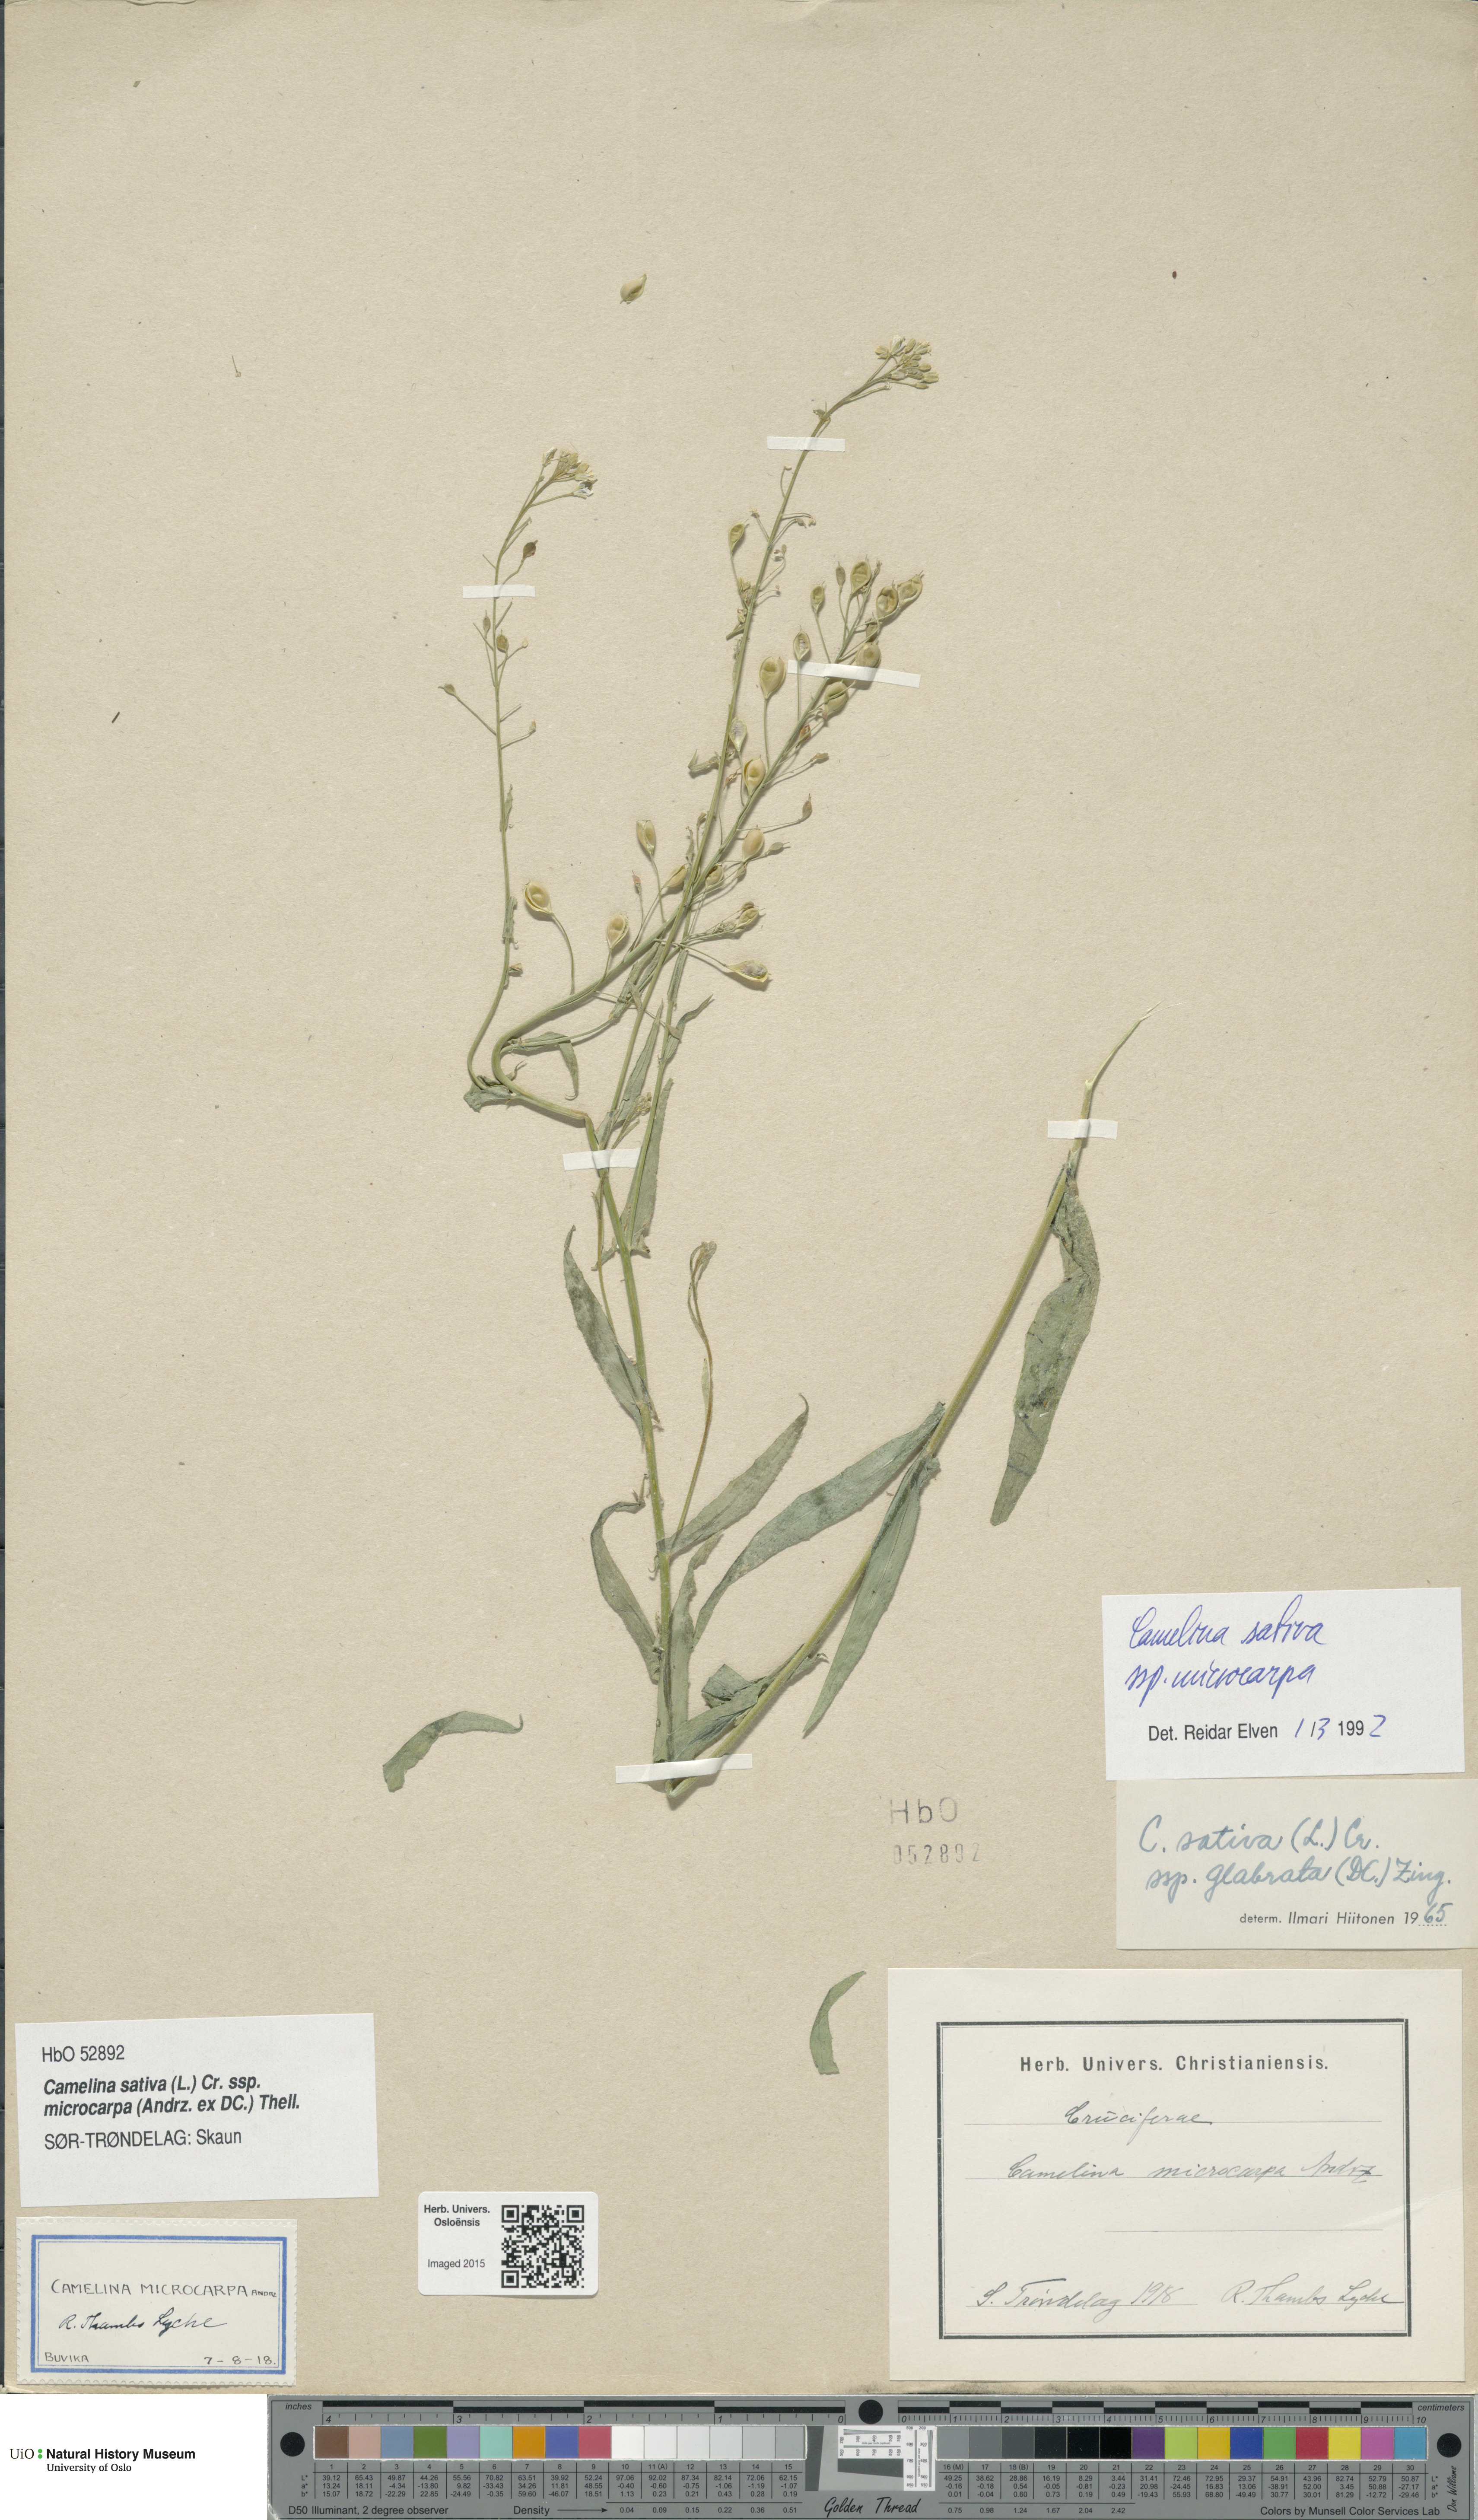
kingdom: Plantae
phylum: Tracheophyta
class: Magnoliopsida
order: Brassicales
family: Brassicaceae
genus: Camelina
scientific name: Camelina sativa
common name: Gold-of-pleasure
